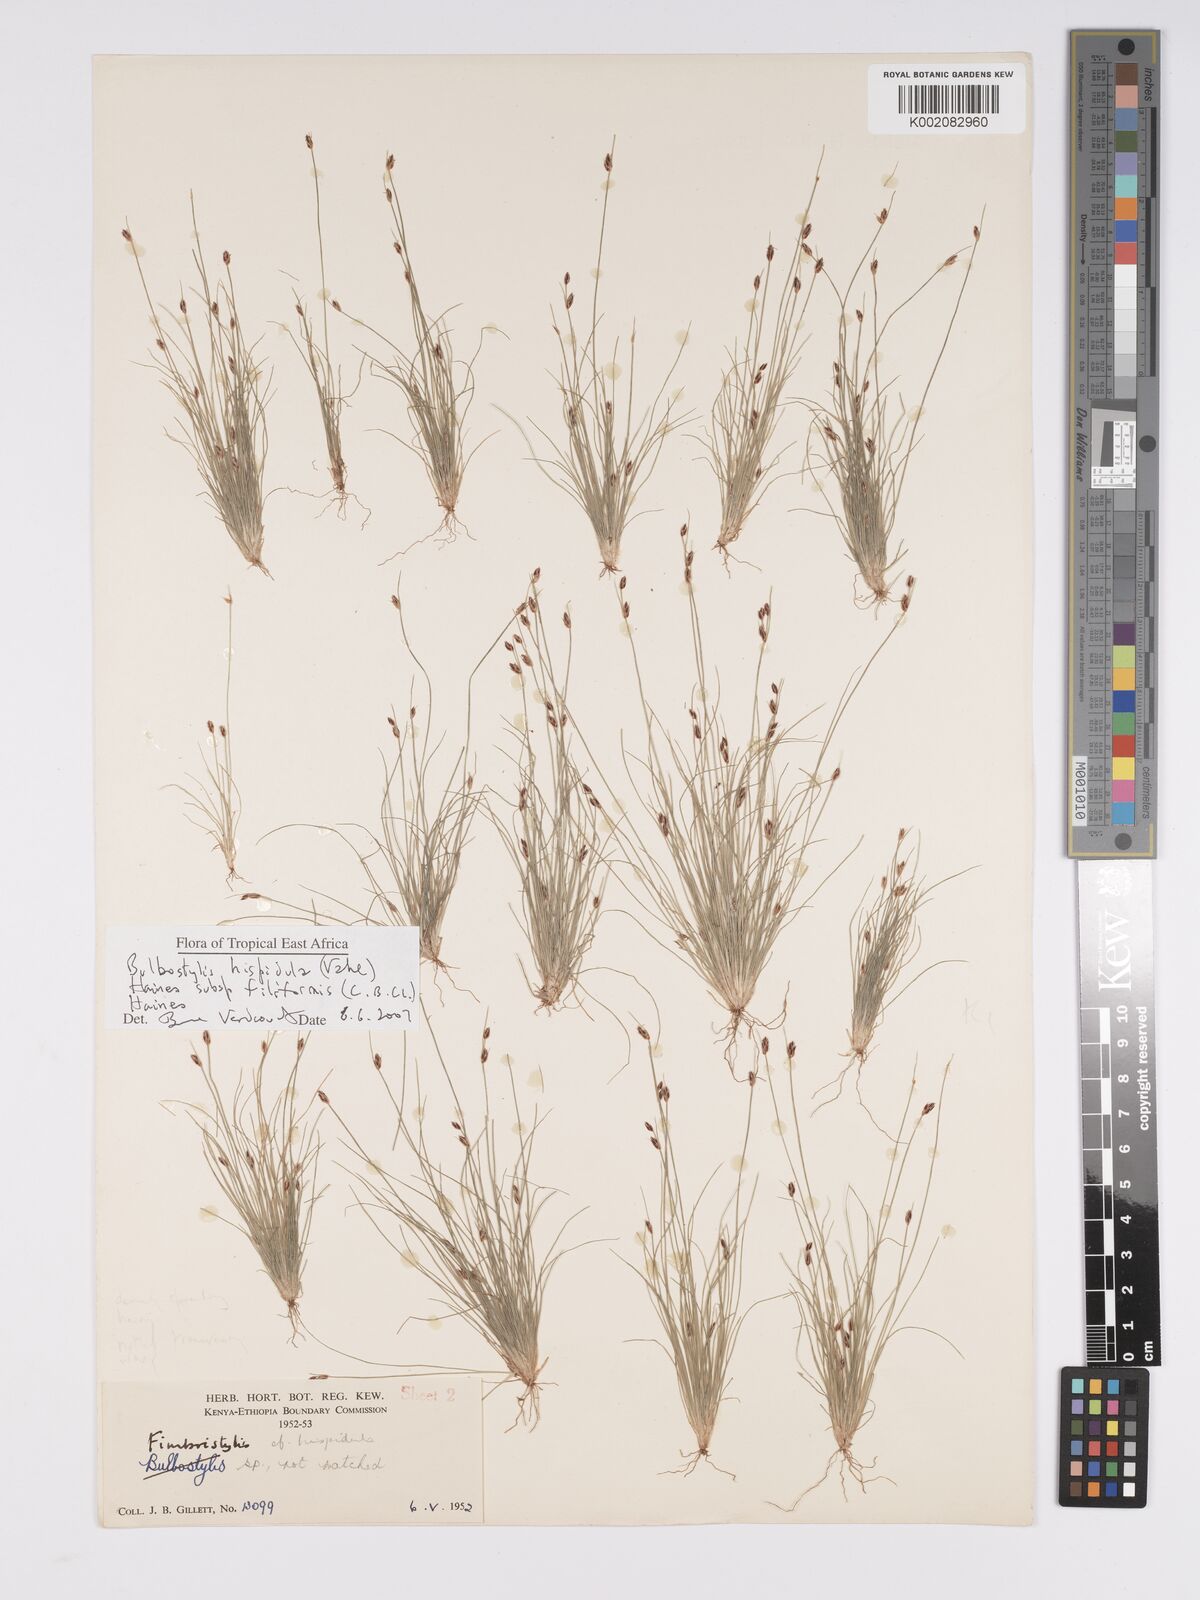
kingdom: Plantae
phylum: Tracheophyta
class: Liliopsida
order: Poales
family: Cyperaceae
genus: Bulbostylis
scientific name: Bulbostylis hispidula
